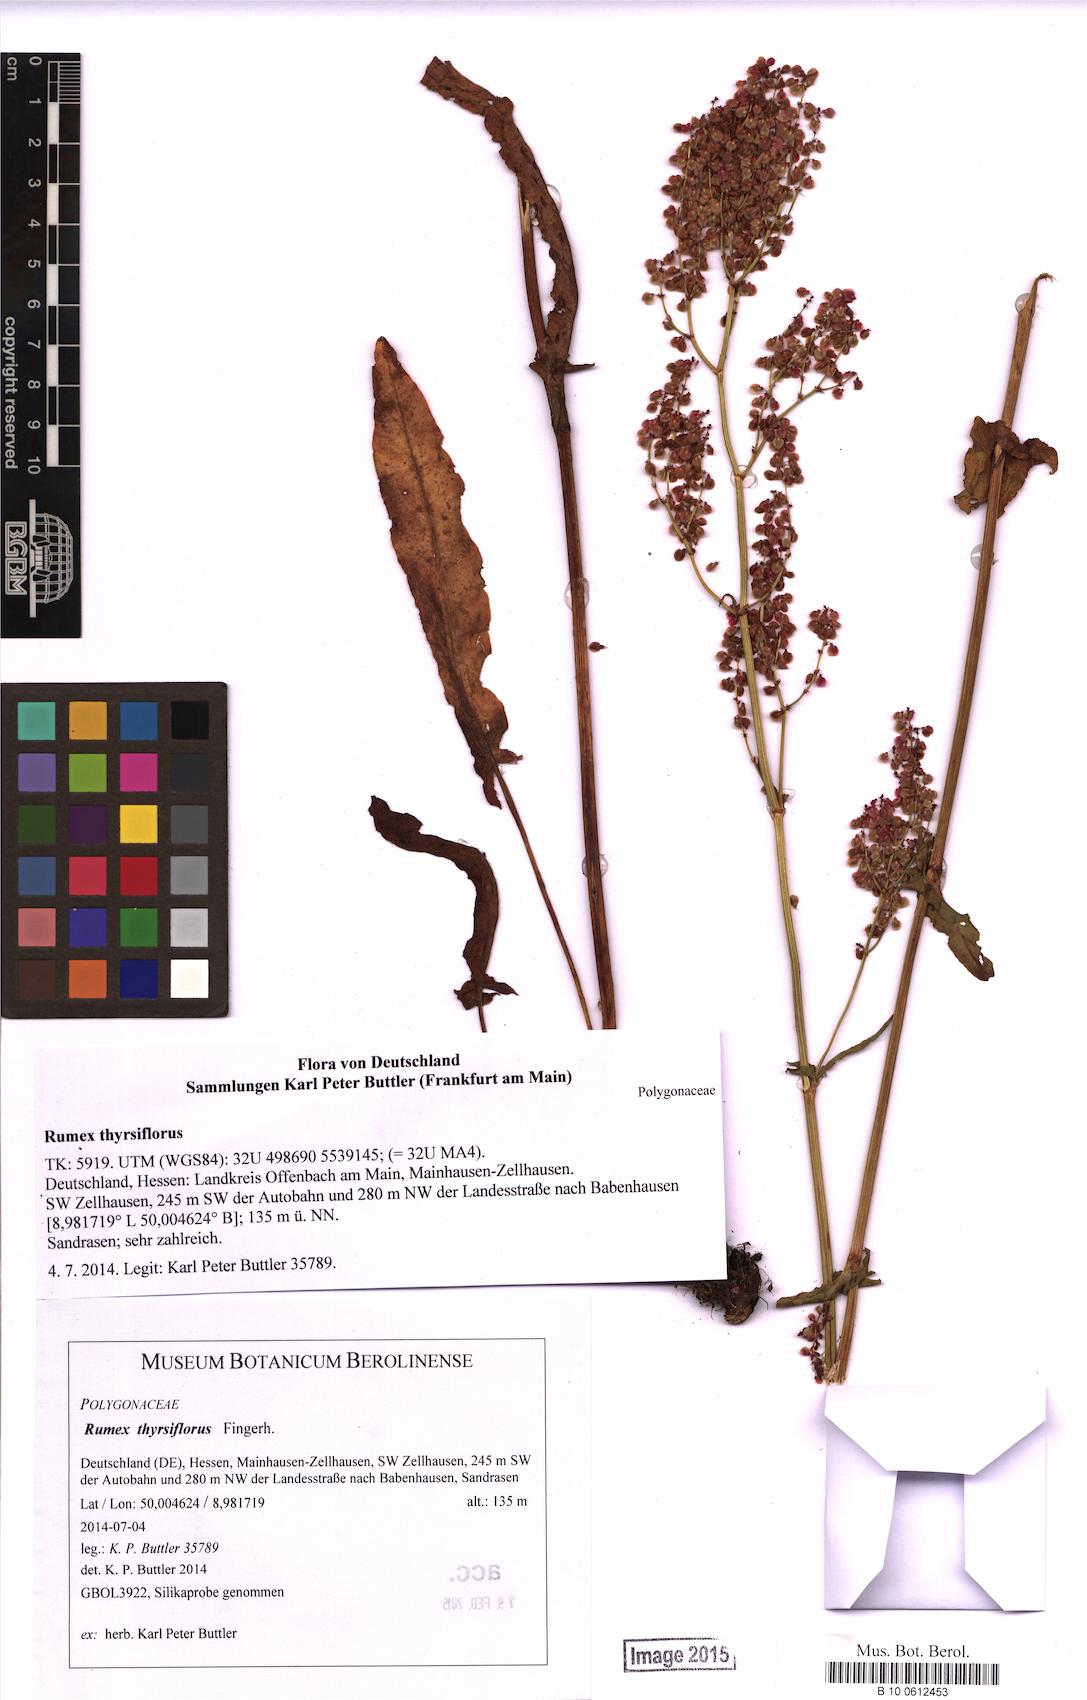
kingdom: Plantae
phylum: Tracheophyta
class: Magnoliopsida
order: Caryophyllales
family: Polygonaceae
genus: Rumex
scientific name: Rumex thyrsiflorus
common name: Garden sorrel
